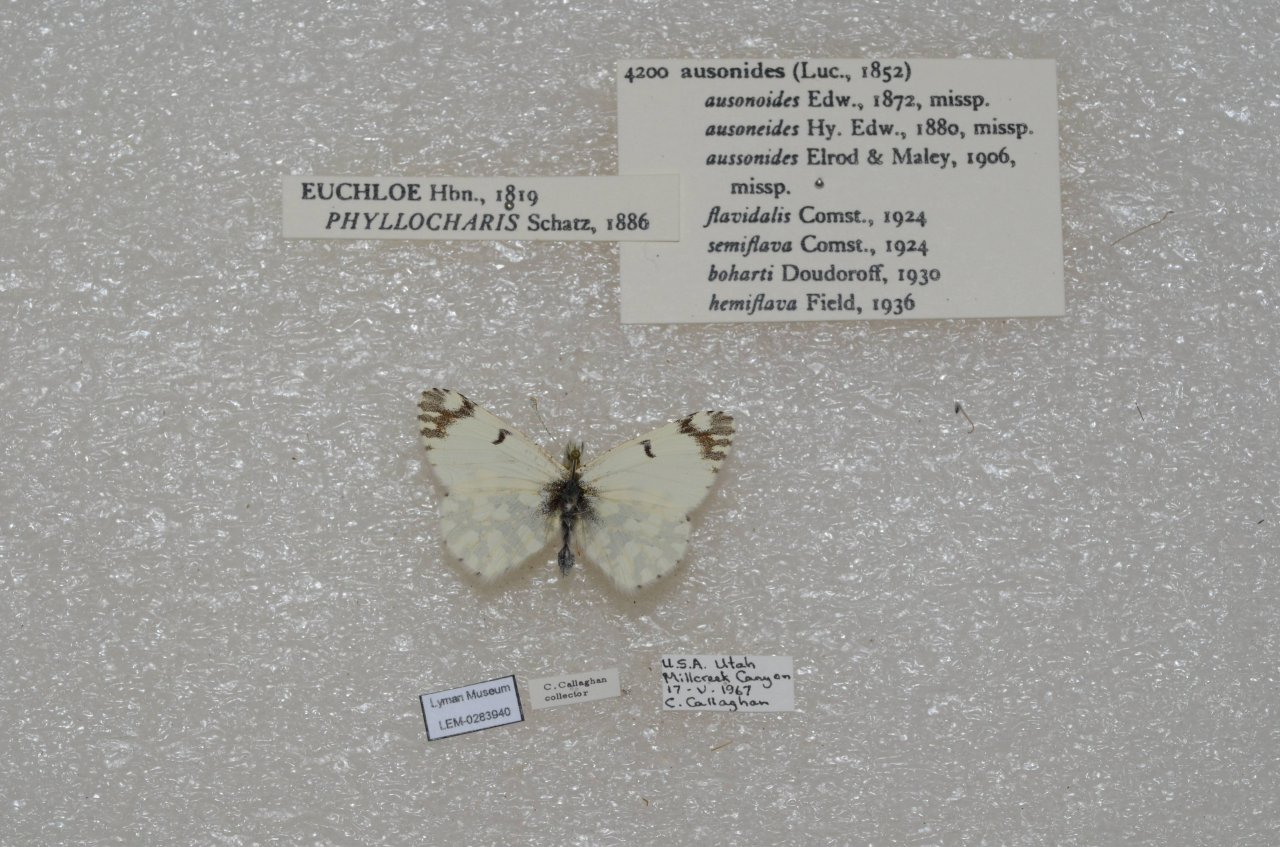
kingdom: Animalia
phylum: Arthropoda
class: Insecta
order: Lepidoptera
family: Pieridae
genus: Euchloe
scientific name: Euchloe ausonides
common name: Large Marble
